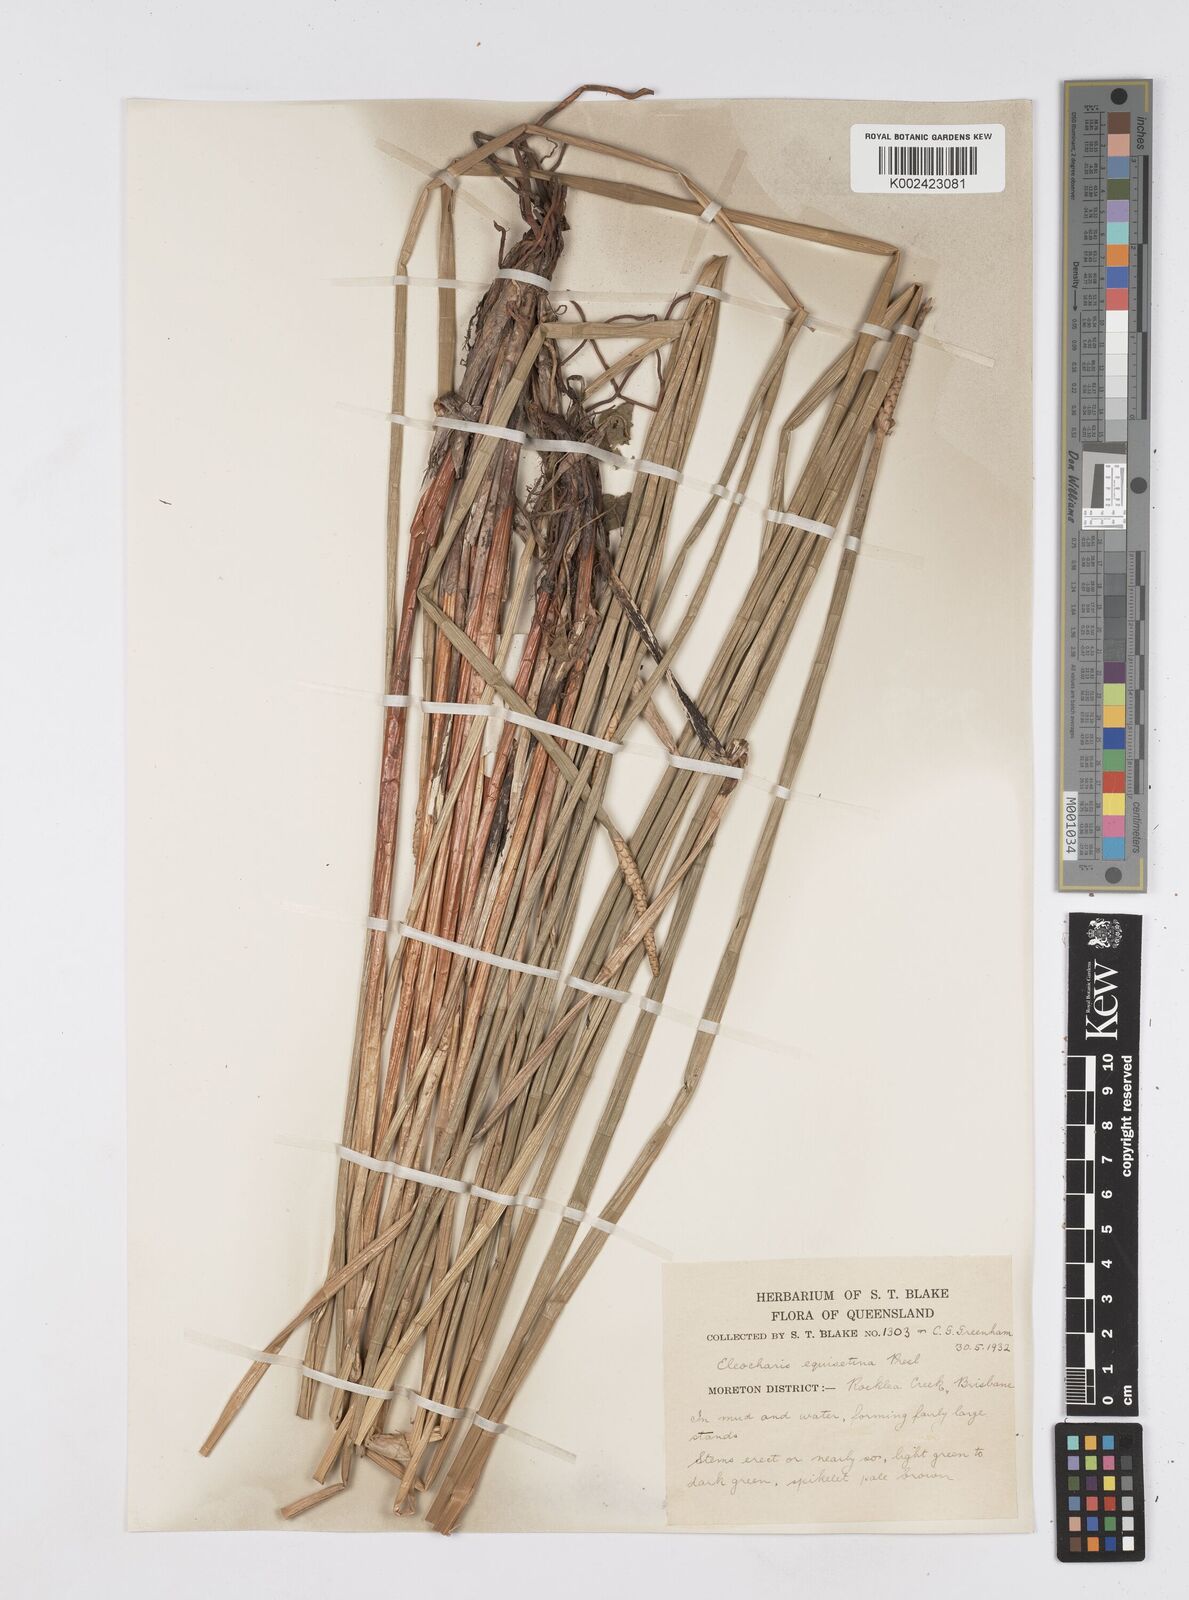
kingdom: Plantae
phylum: Tracheophyta
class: Liliopsida
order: Poales
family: Cyperaceae
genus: Eleocharis
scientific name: Eleocharis dulcis
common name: Chinese water chestnut
